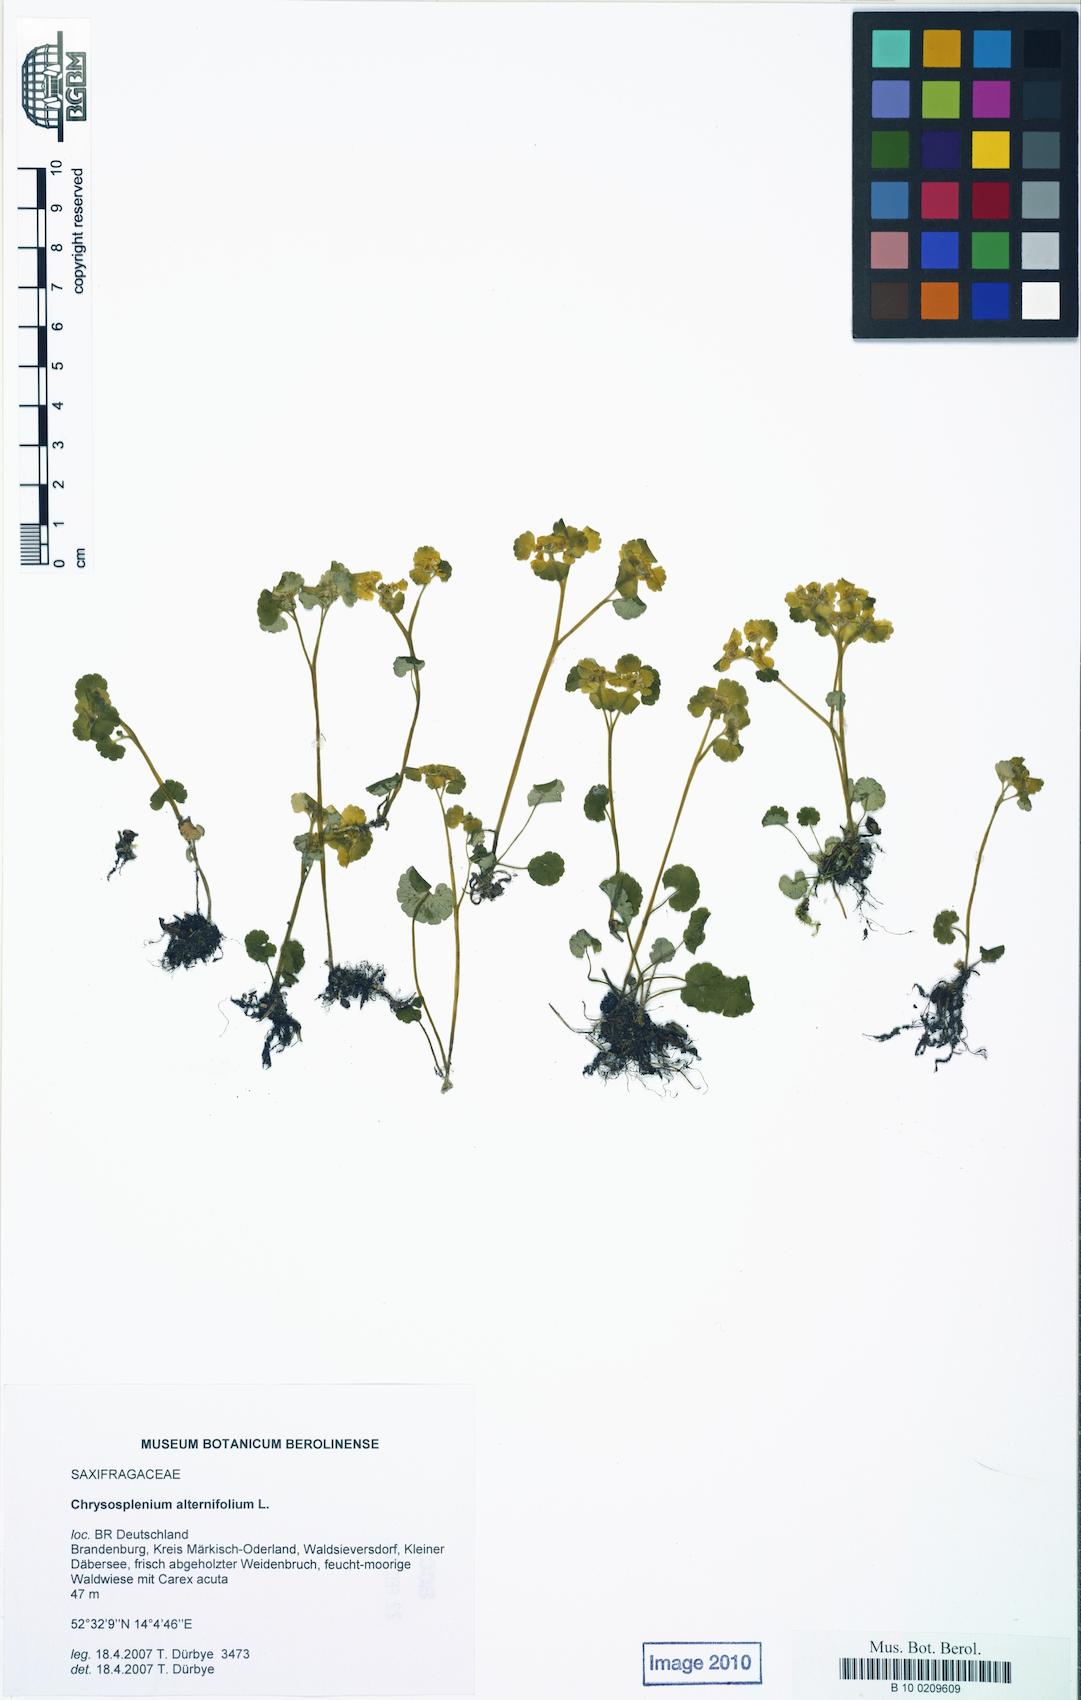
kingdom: Plantae
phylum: Tracheophyta
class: Magnoliopsida
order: Saxifragales
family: Saxifragaceae
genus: Chrysosplenium
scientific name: Chrysosplenium alternifolium
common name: Alternate-leaved golden-saxifrage
